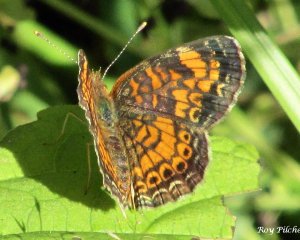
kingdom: Animalia
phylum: Arthropoda
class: Insecta
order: Lepidoptera
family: Nymphalidae
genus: Phyciodes
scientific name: Phyciodes tharos
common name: Pearl Crescent
